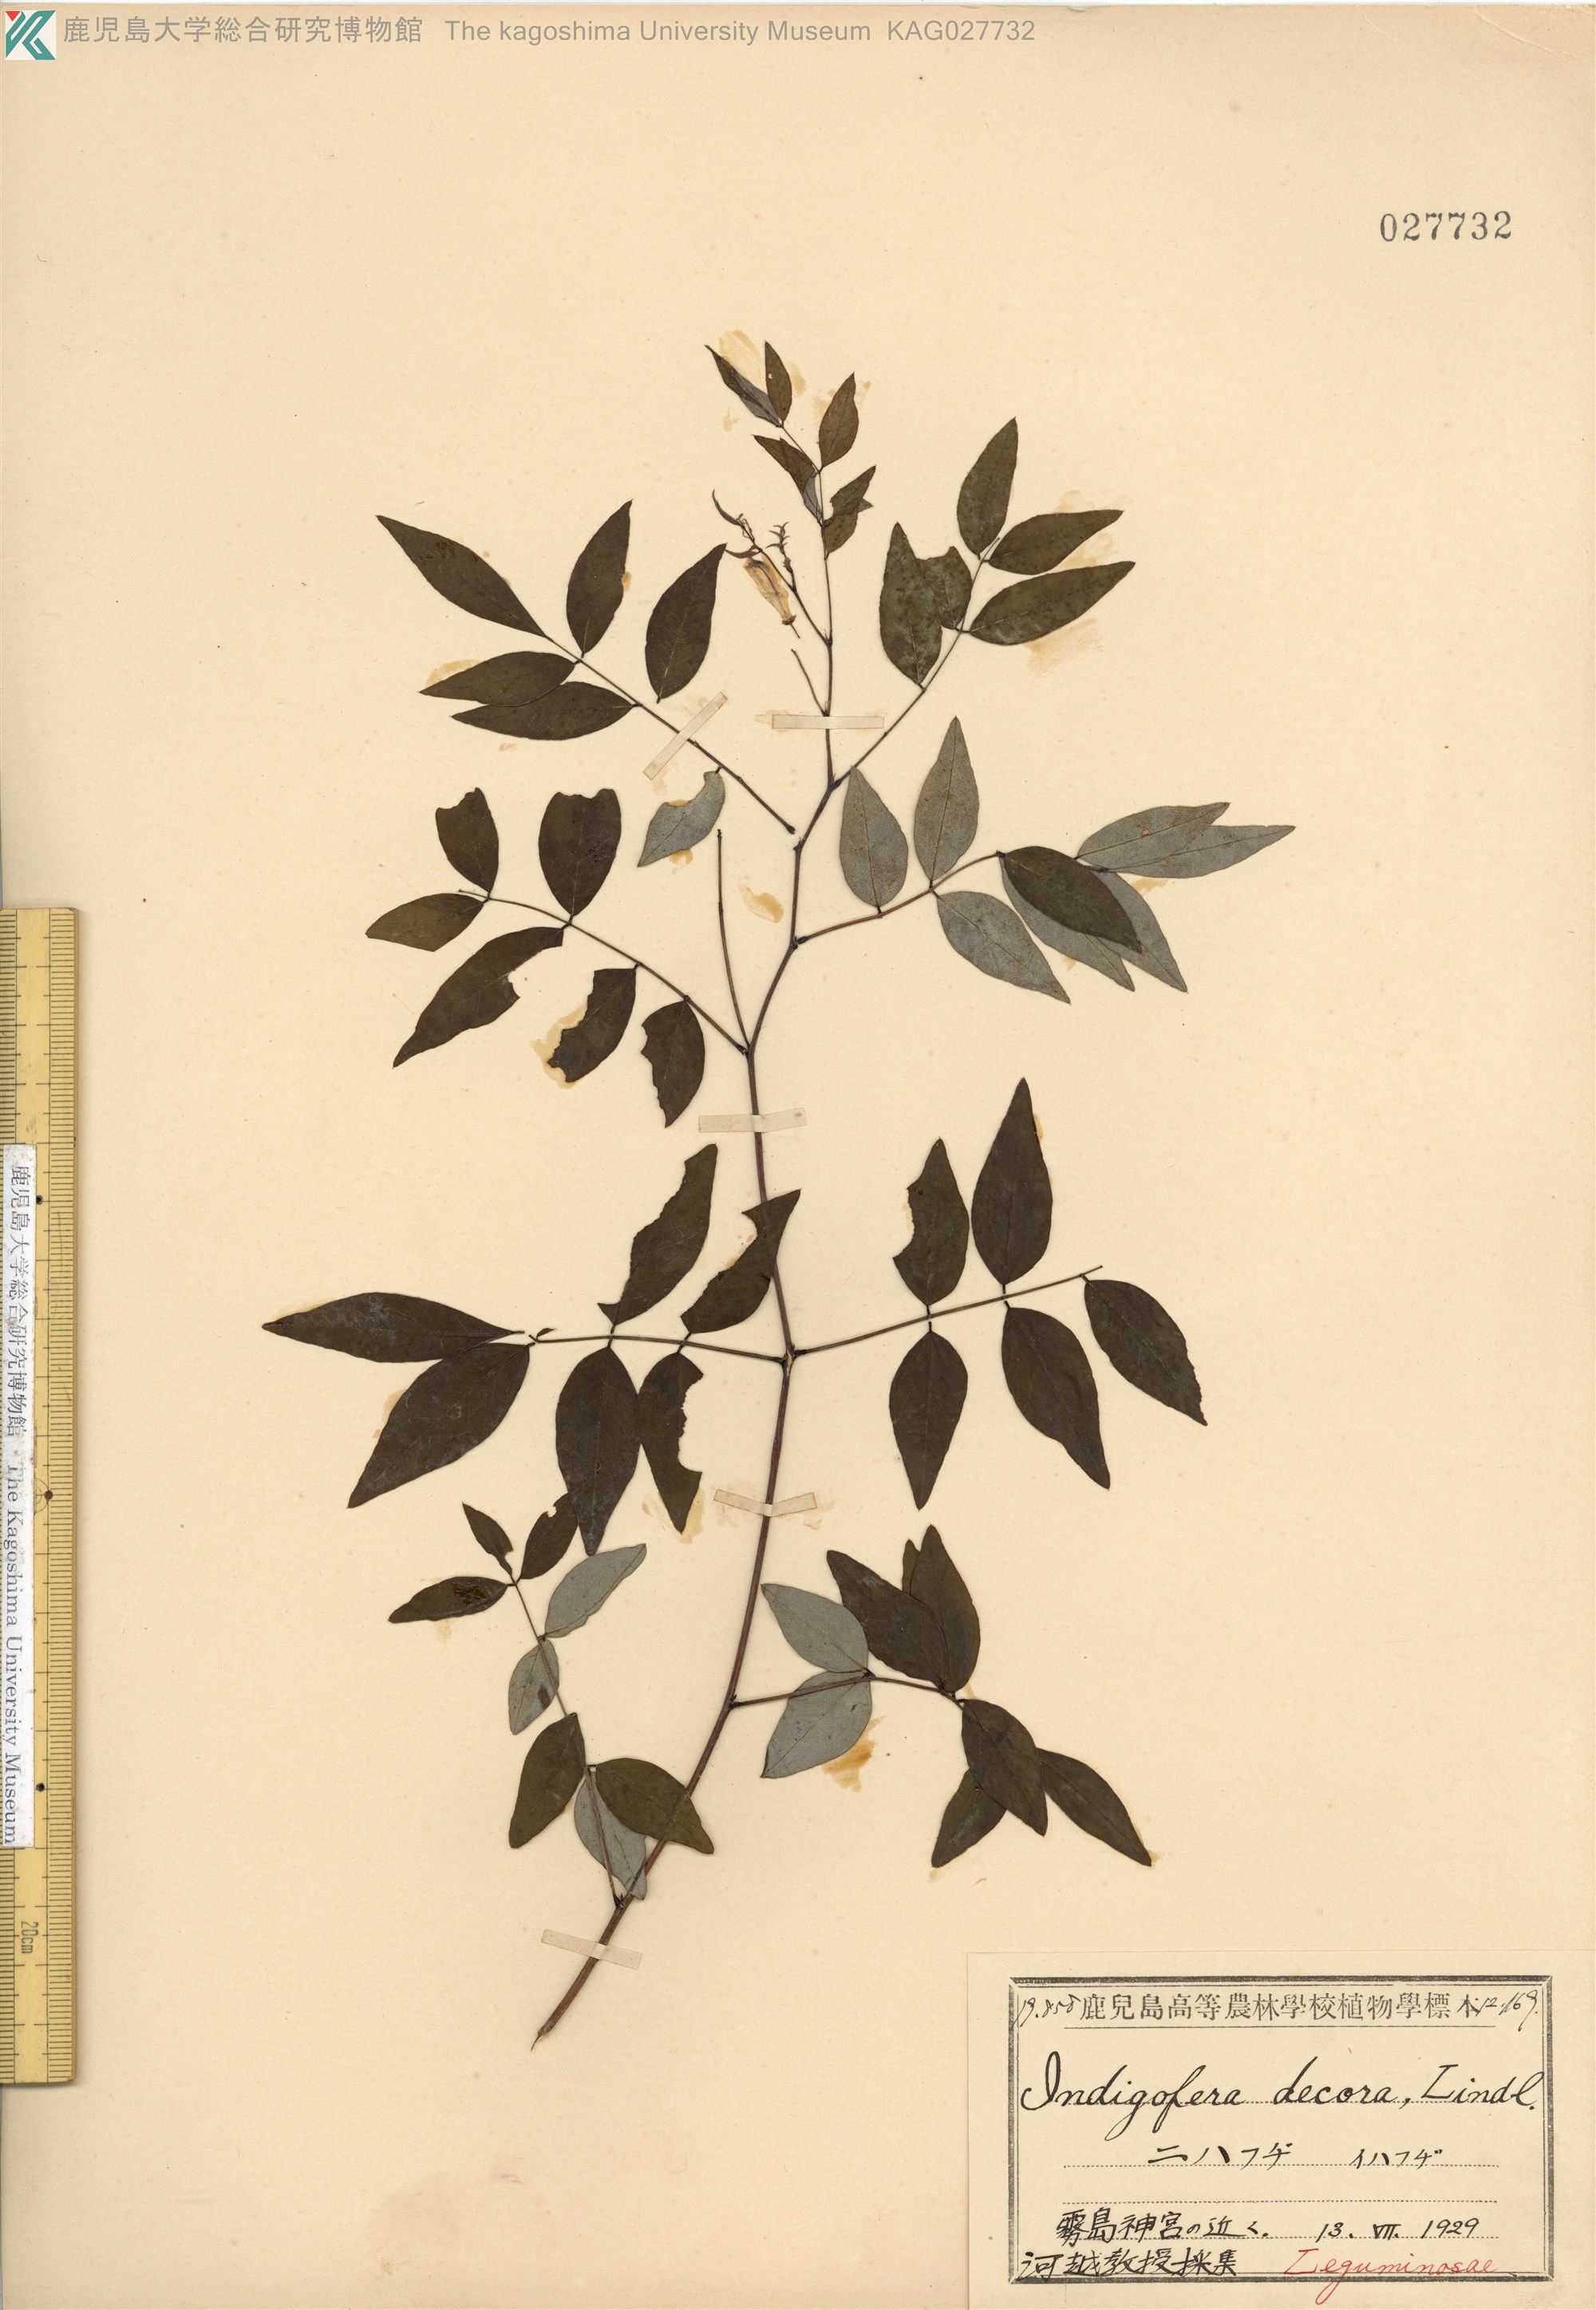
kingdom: Plantae
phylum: Tracheophyta
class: Magnoliopsida
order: Fabales
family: Fabaceae
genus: Indigofera
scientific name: Indigofera incarnata
